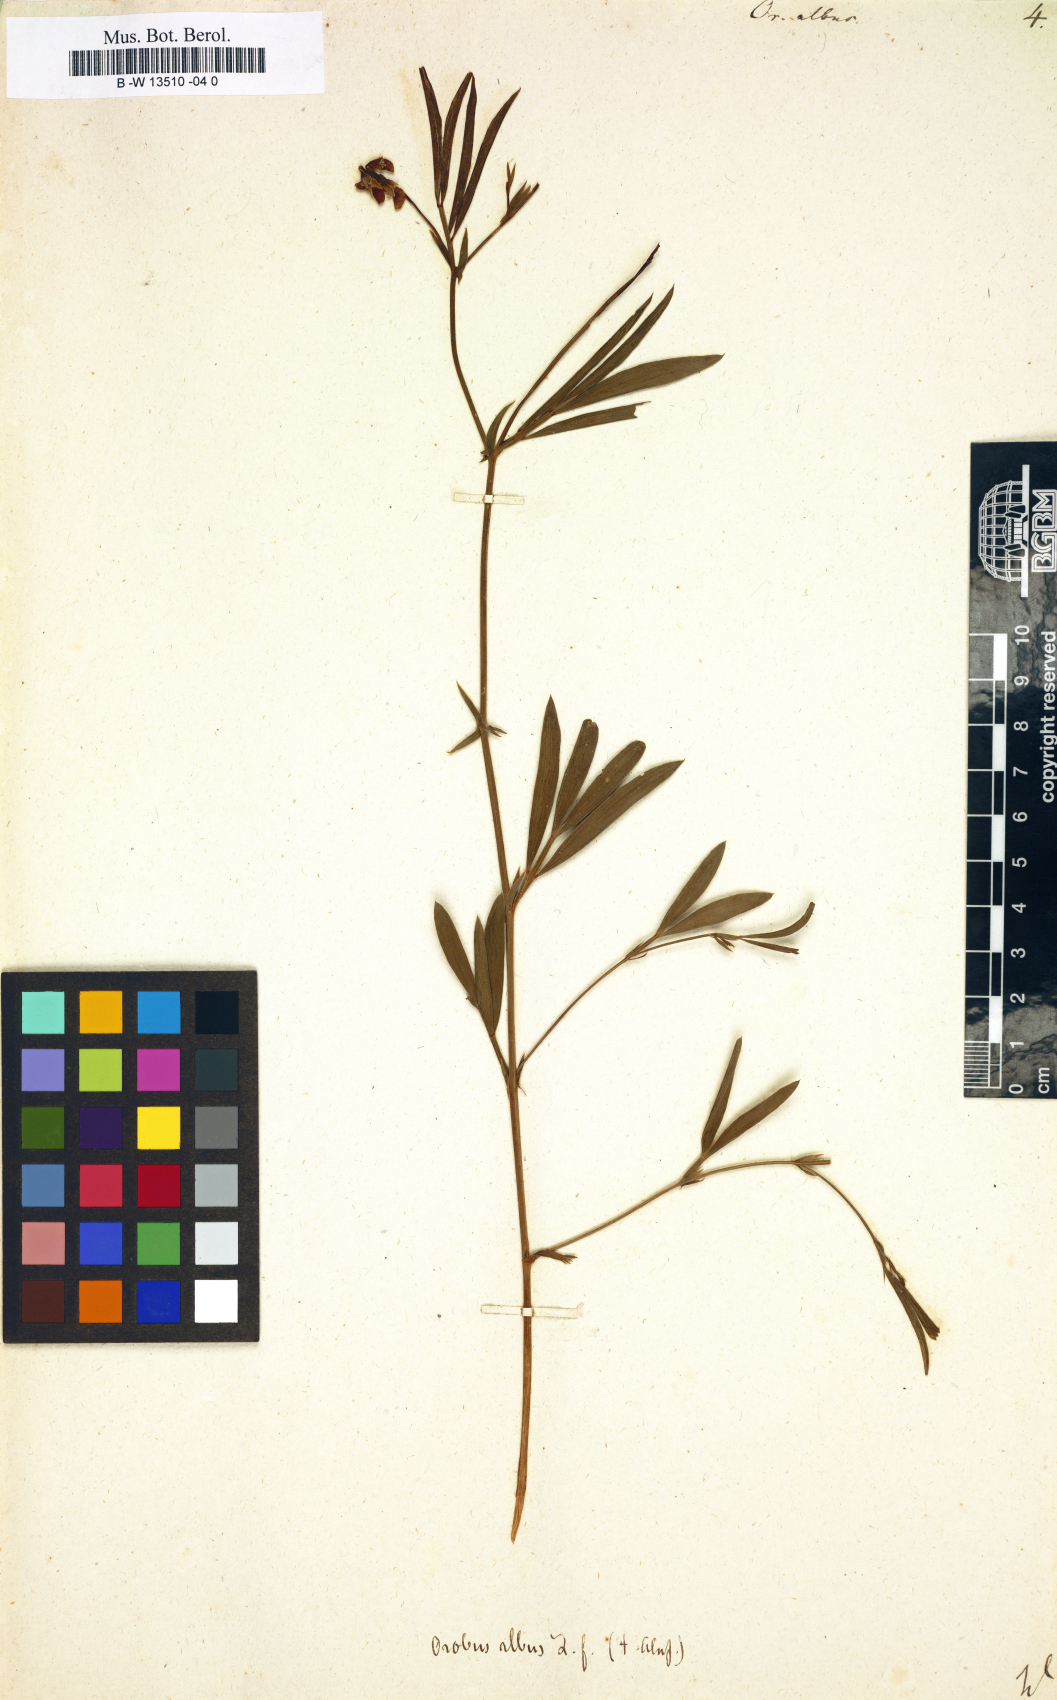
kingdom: Plantae
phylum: Tracheophyta
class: Magnoliopsida
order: Fabales
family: Fabaceae
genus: Lathyrus
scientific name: Lathyrus pannonicus
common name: Pea
